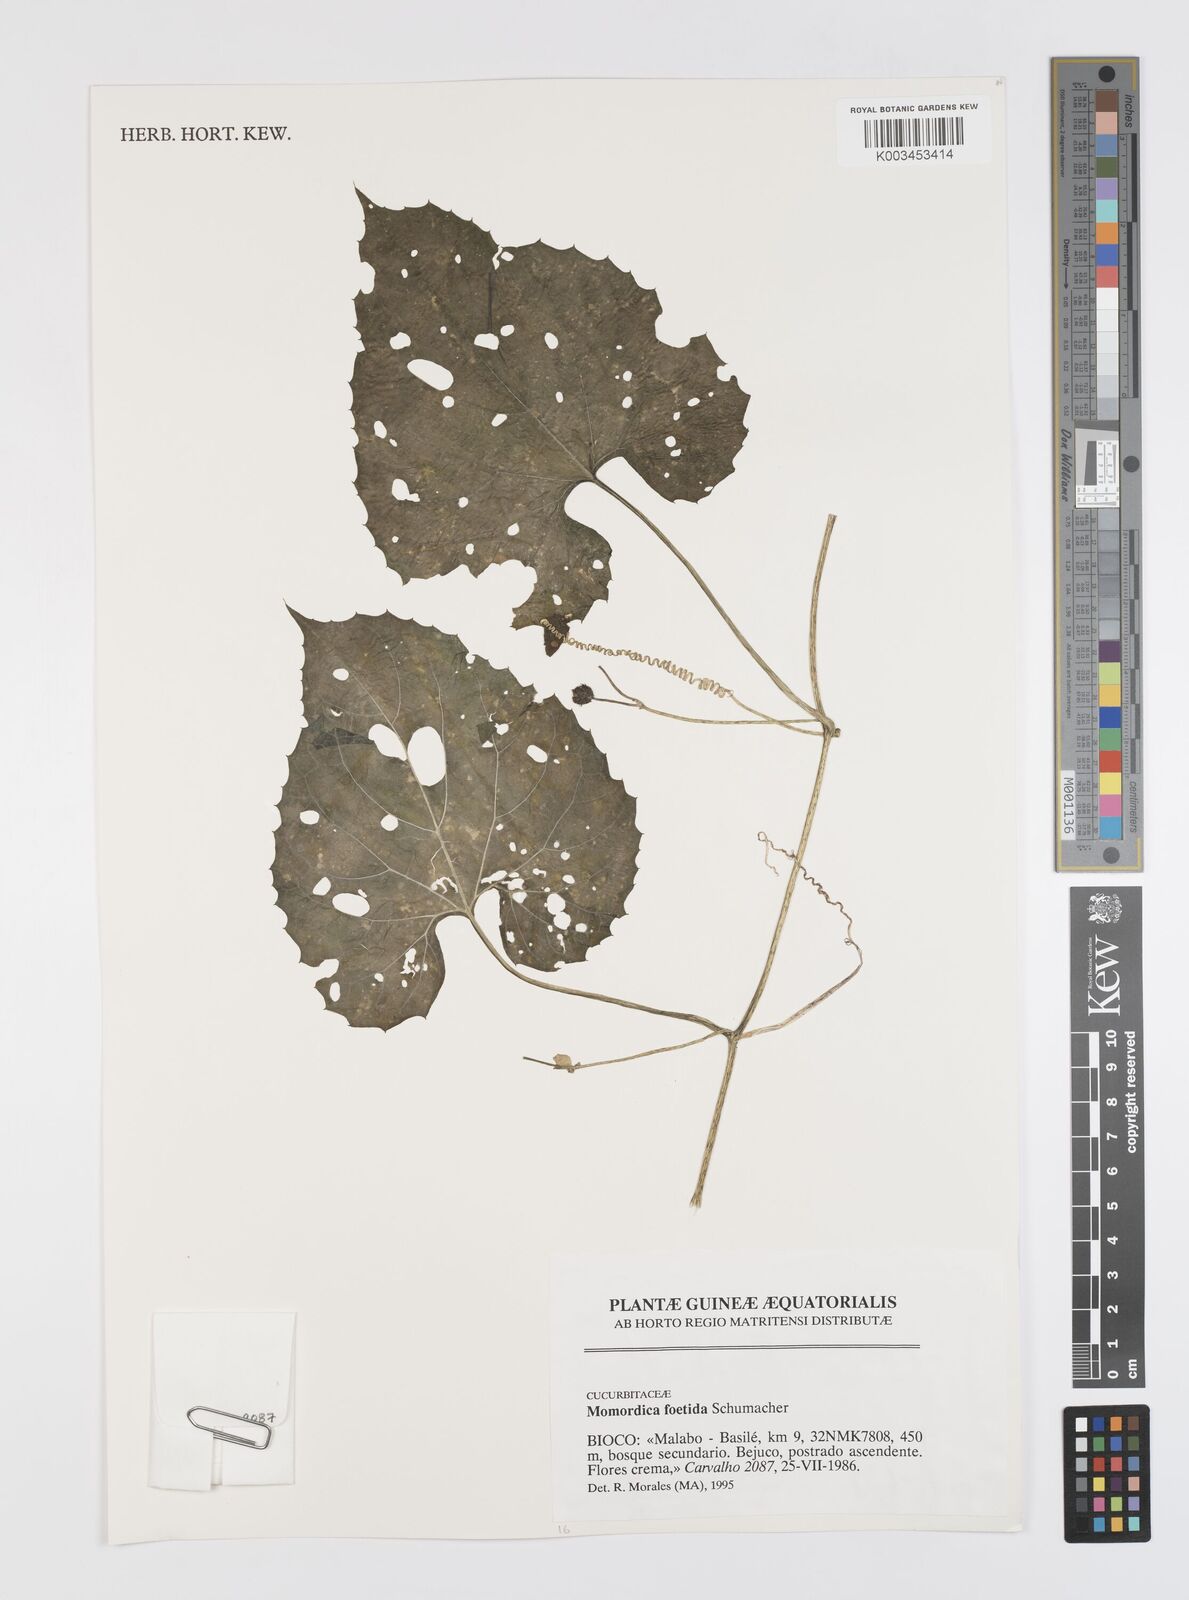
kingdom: Plantae
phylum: Tracheophyta
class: Magnoliopsida
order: Cucurbitales
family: Cucurbitaceae
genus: Momordica
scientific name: Momordica foetida
